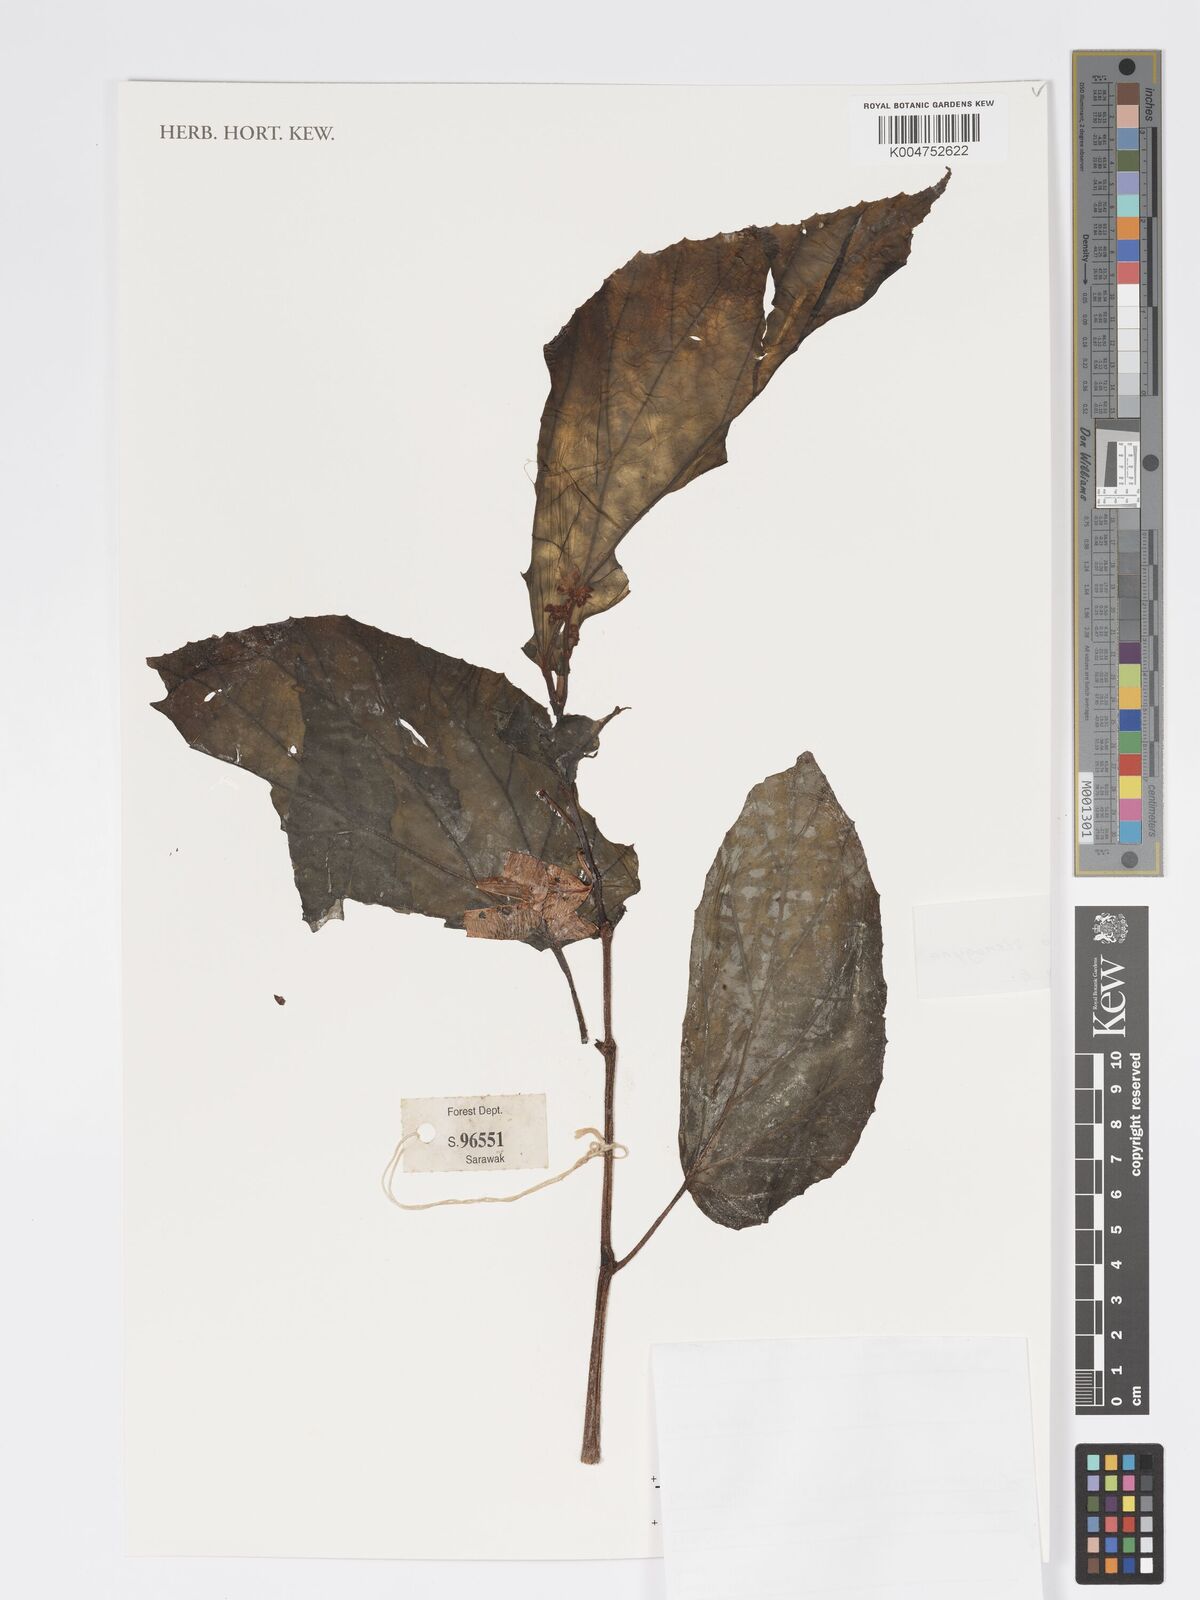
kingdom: Plantae
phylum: Tracheophyta
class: Magnoliopsida
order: Cucurbitales
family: Begoniaceae
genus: Begonia
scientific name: Begonia stenogyna
